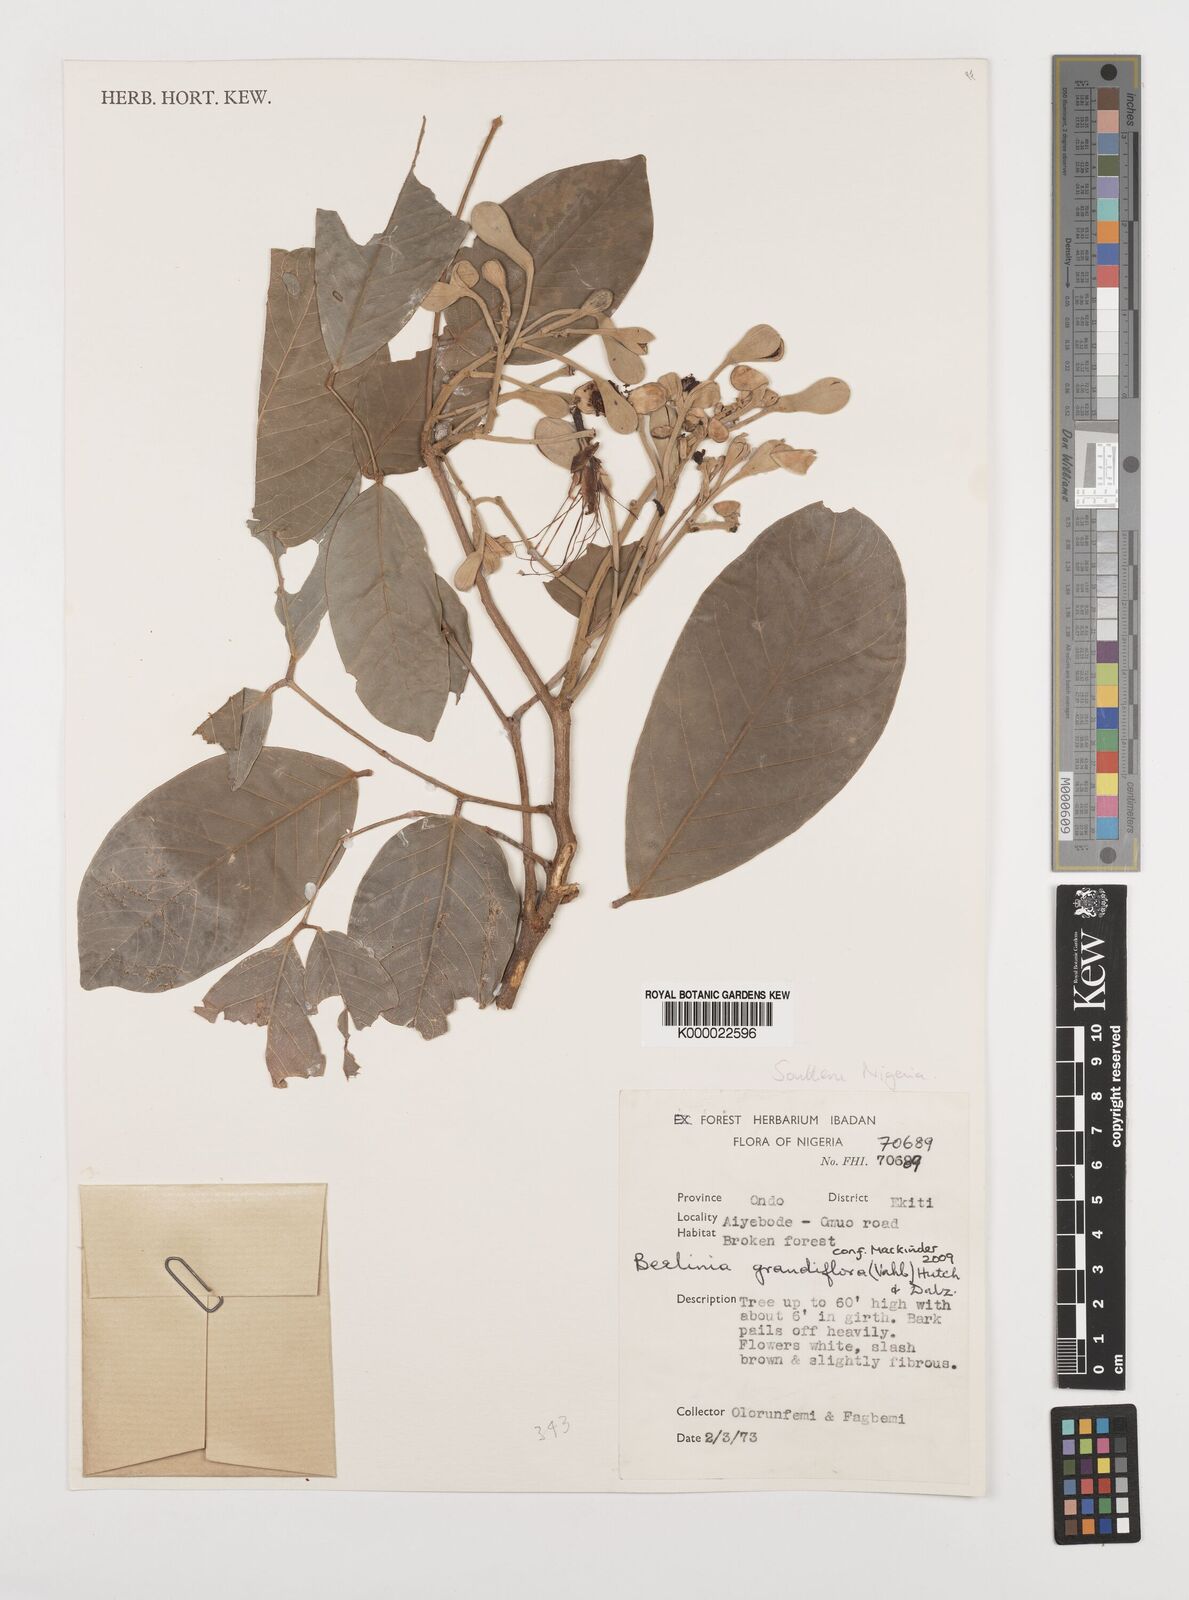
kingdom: Plantae
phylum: Tracheophyta
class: Magnoliopsida
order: Fabales
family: Fabaceae
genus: Berlinia
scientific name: Berlinia grandiflora
